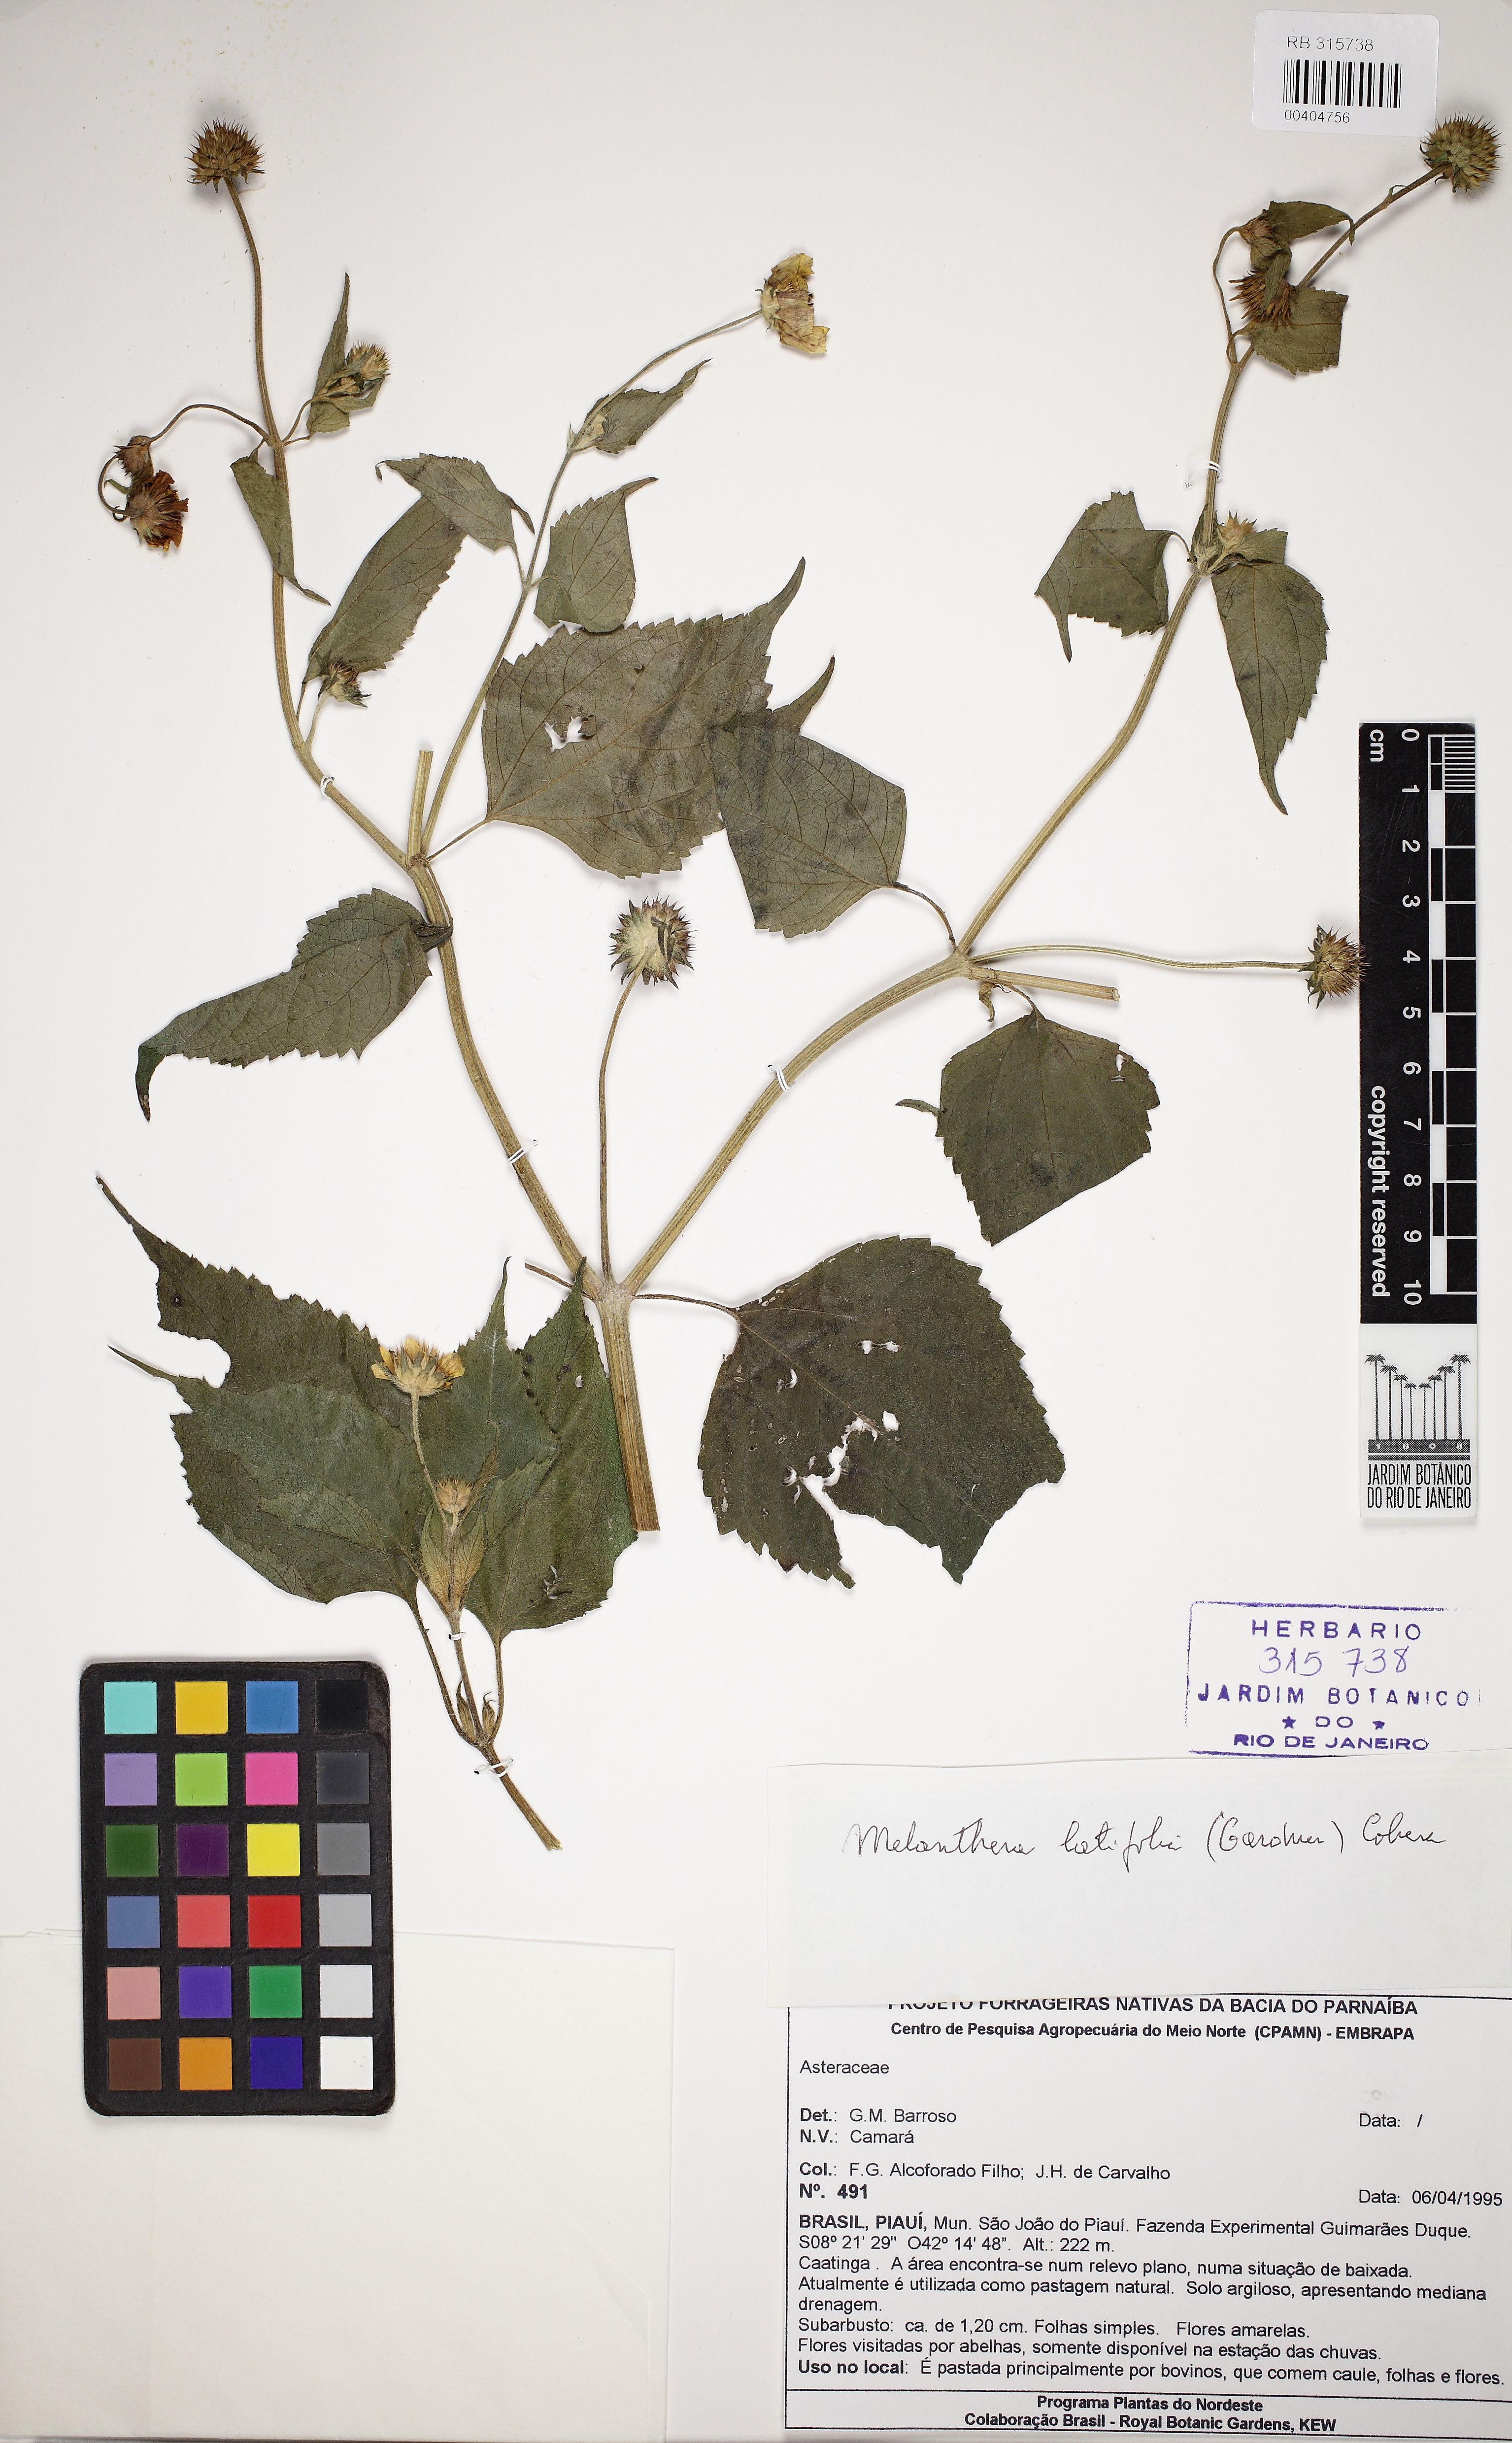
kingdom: Plantae
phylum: Tracheophyta
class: Magnoliopsida
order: Asterales
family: Asteraceae
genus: Echinocephalum
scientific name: Echinocephalum latifolium
